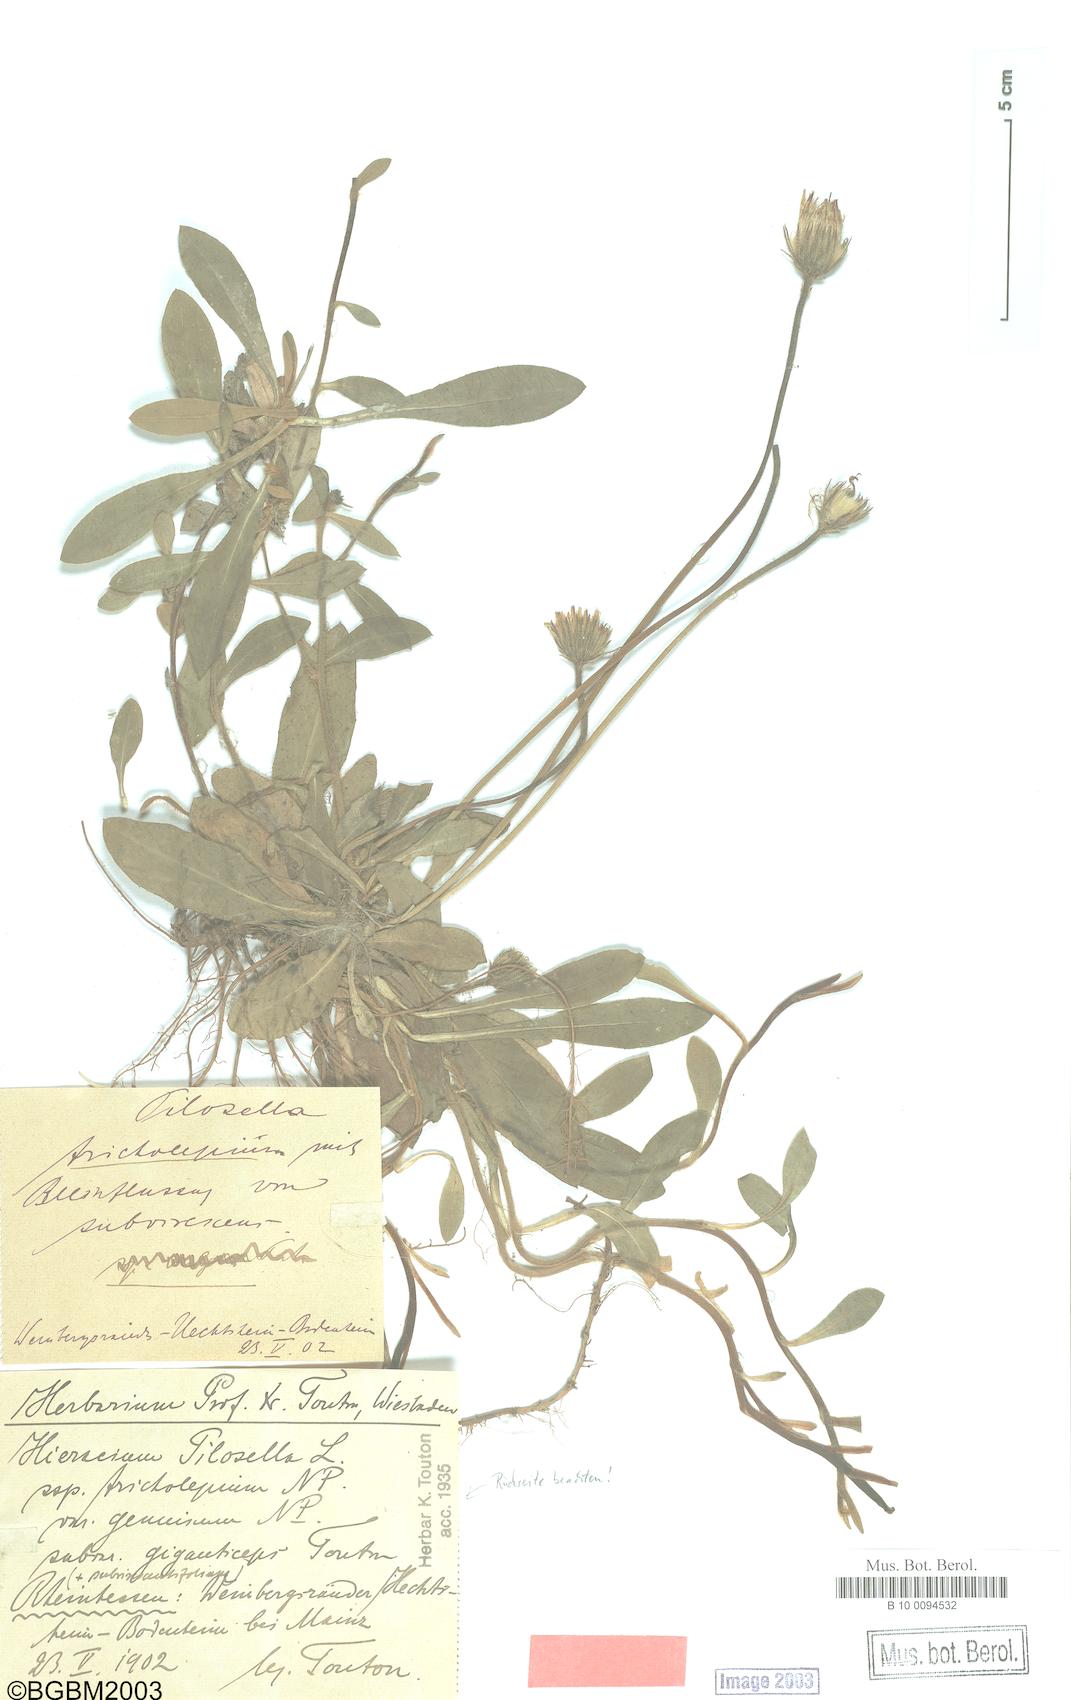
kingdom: Plantae
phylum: Tracheophyta
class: Magnoliopsida
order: Asterales
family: Asteraceae
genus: Pilosella
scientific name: Pilosella officinarum
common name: Mouse-ear hawkweed
